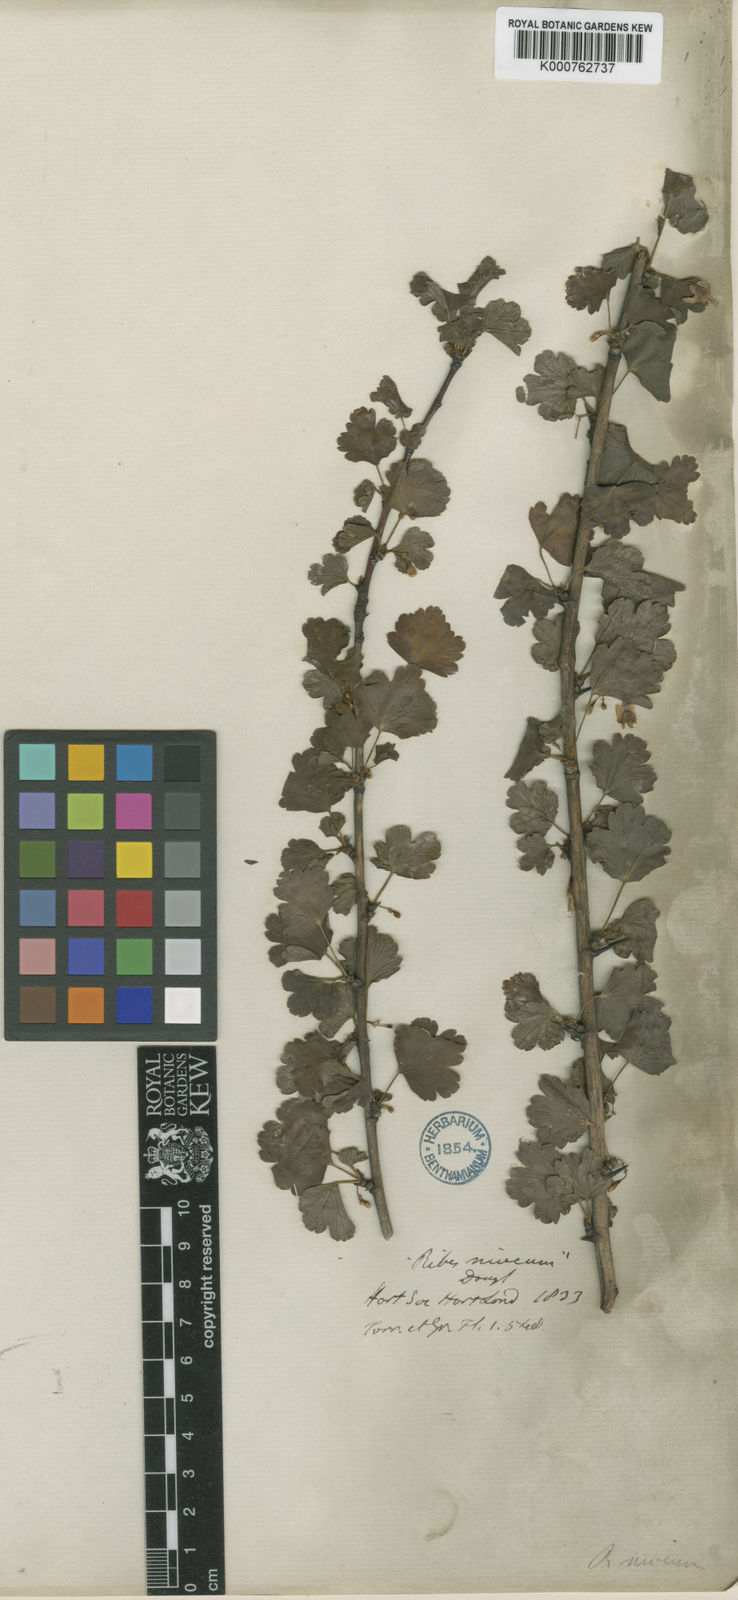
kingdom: Plantae
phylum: Tracheophyta
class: Magnoliopsida
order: Saxifragales
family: Grossulariaceae
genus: Ribes
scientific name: Ribes niveum
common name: Snake river gooseberry
